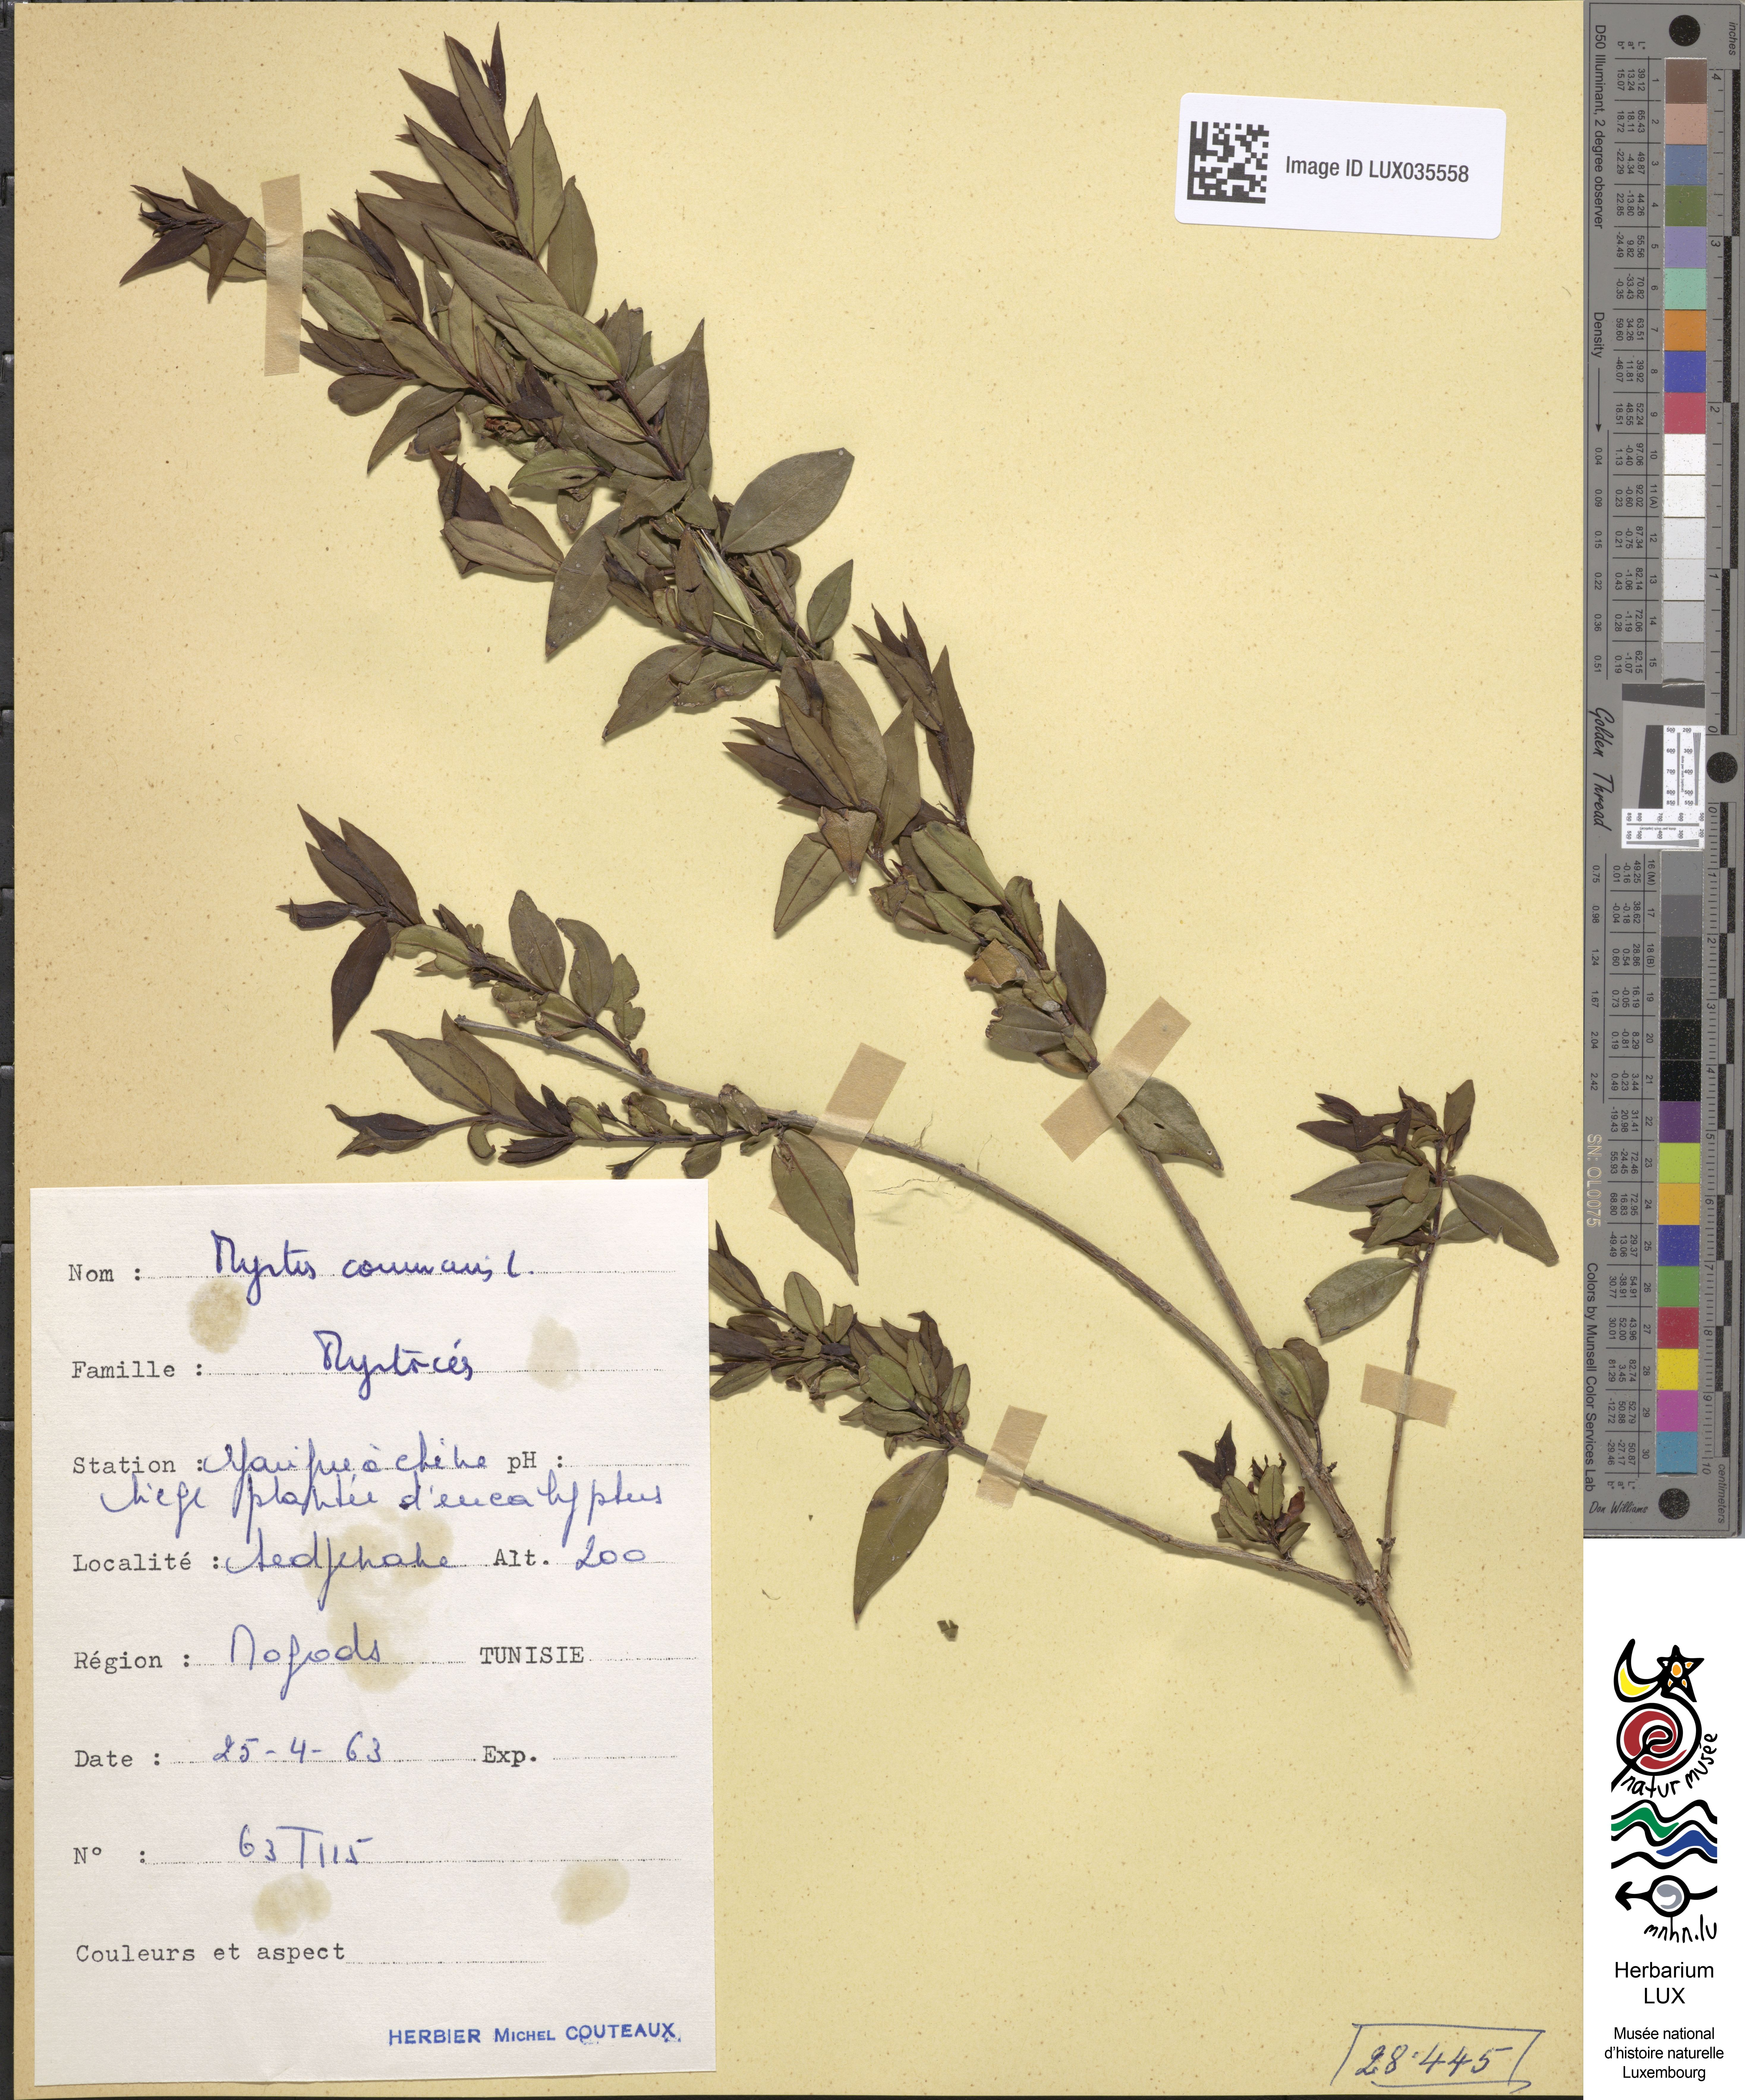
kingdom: Plantae
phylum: Tracheophyta
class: Magnoliopsida
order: Myrtales
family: Myrtaceae
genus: Myrtus
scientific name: Myrtus communis
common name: Myrtle
